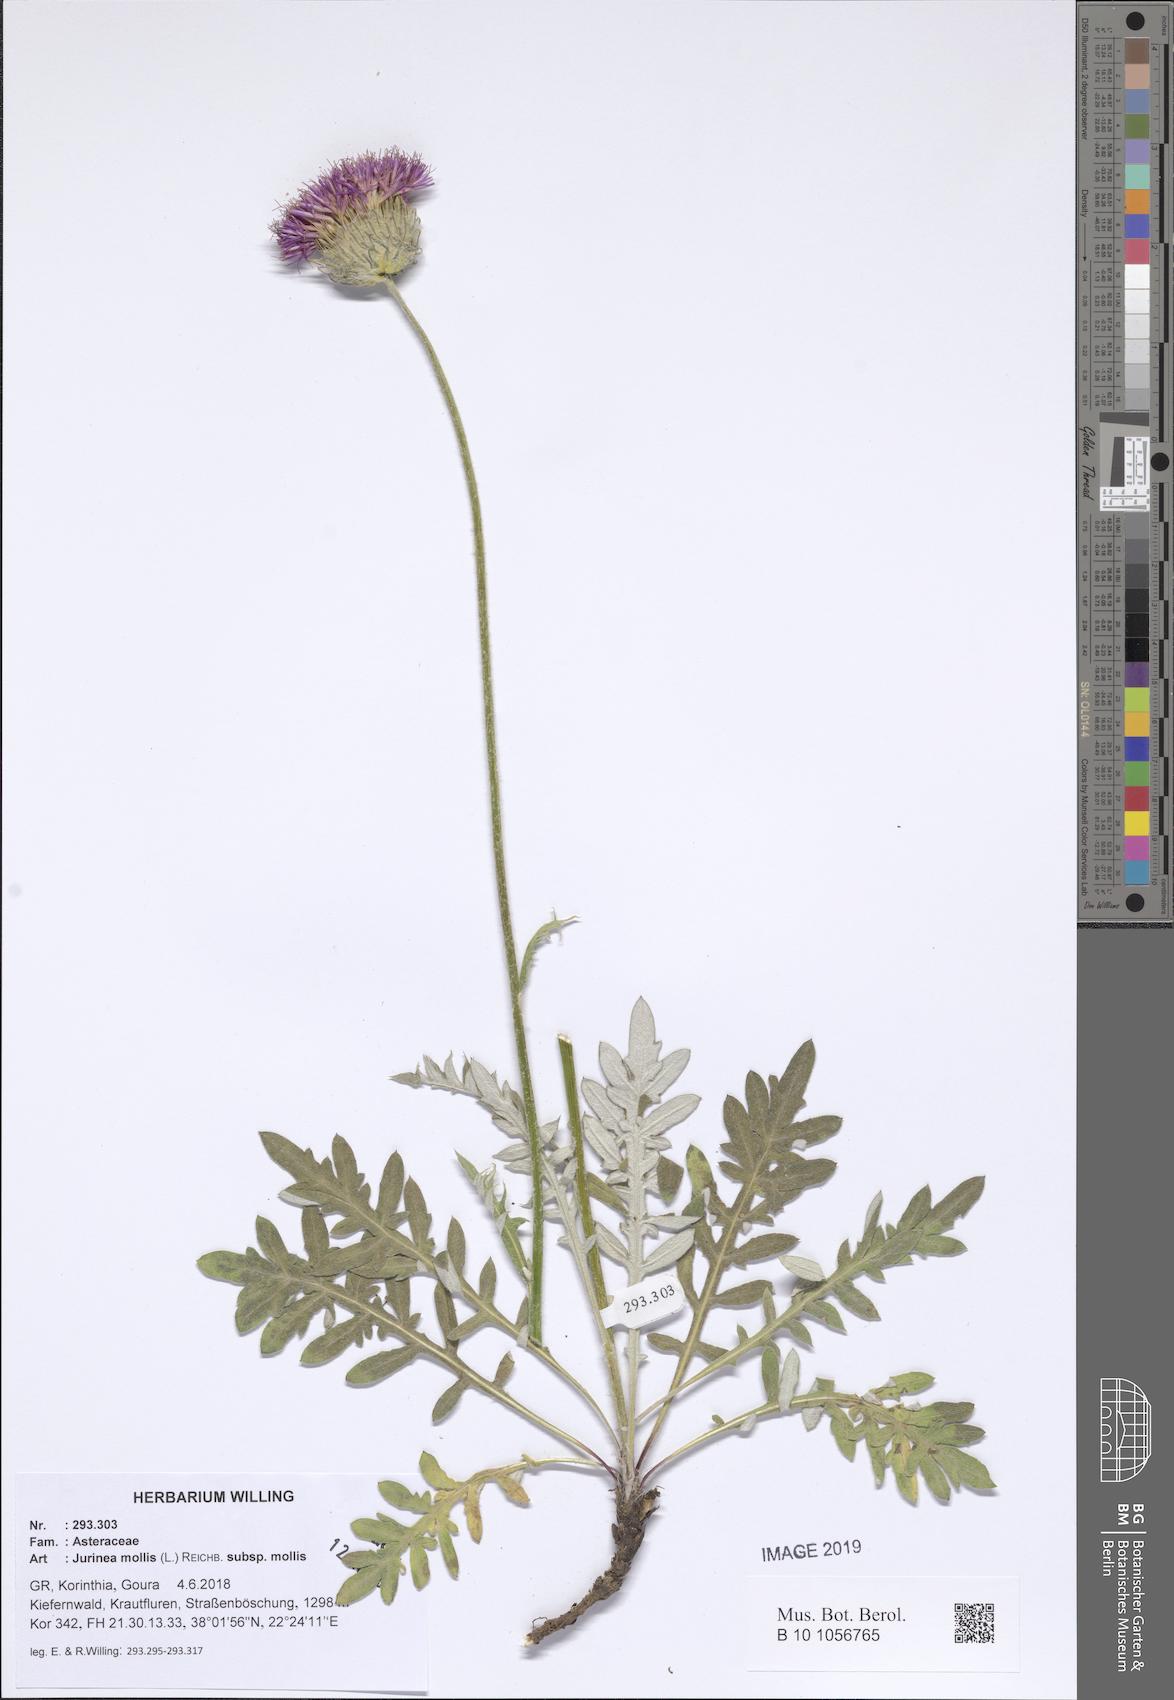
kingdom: Plantae
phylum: Tracheophyta
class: Magnoliopsida
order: Asterales
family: Asteraceae
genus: Jurinea
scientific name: Jurinea glycacantha
